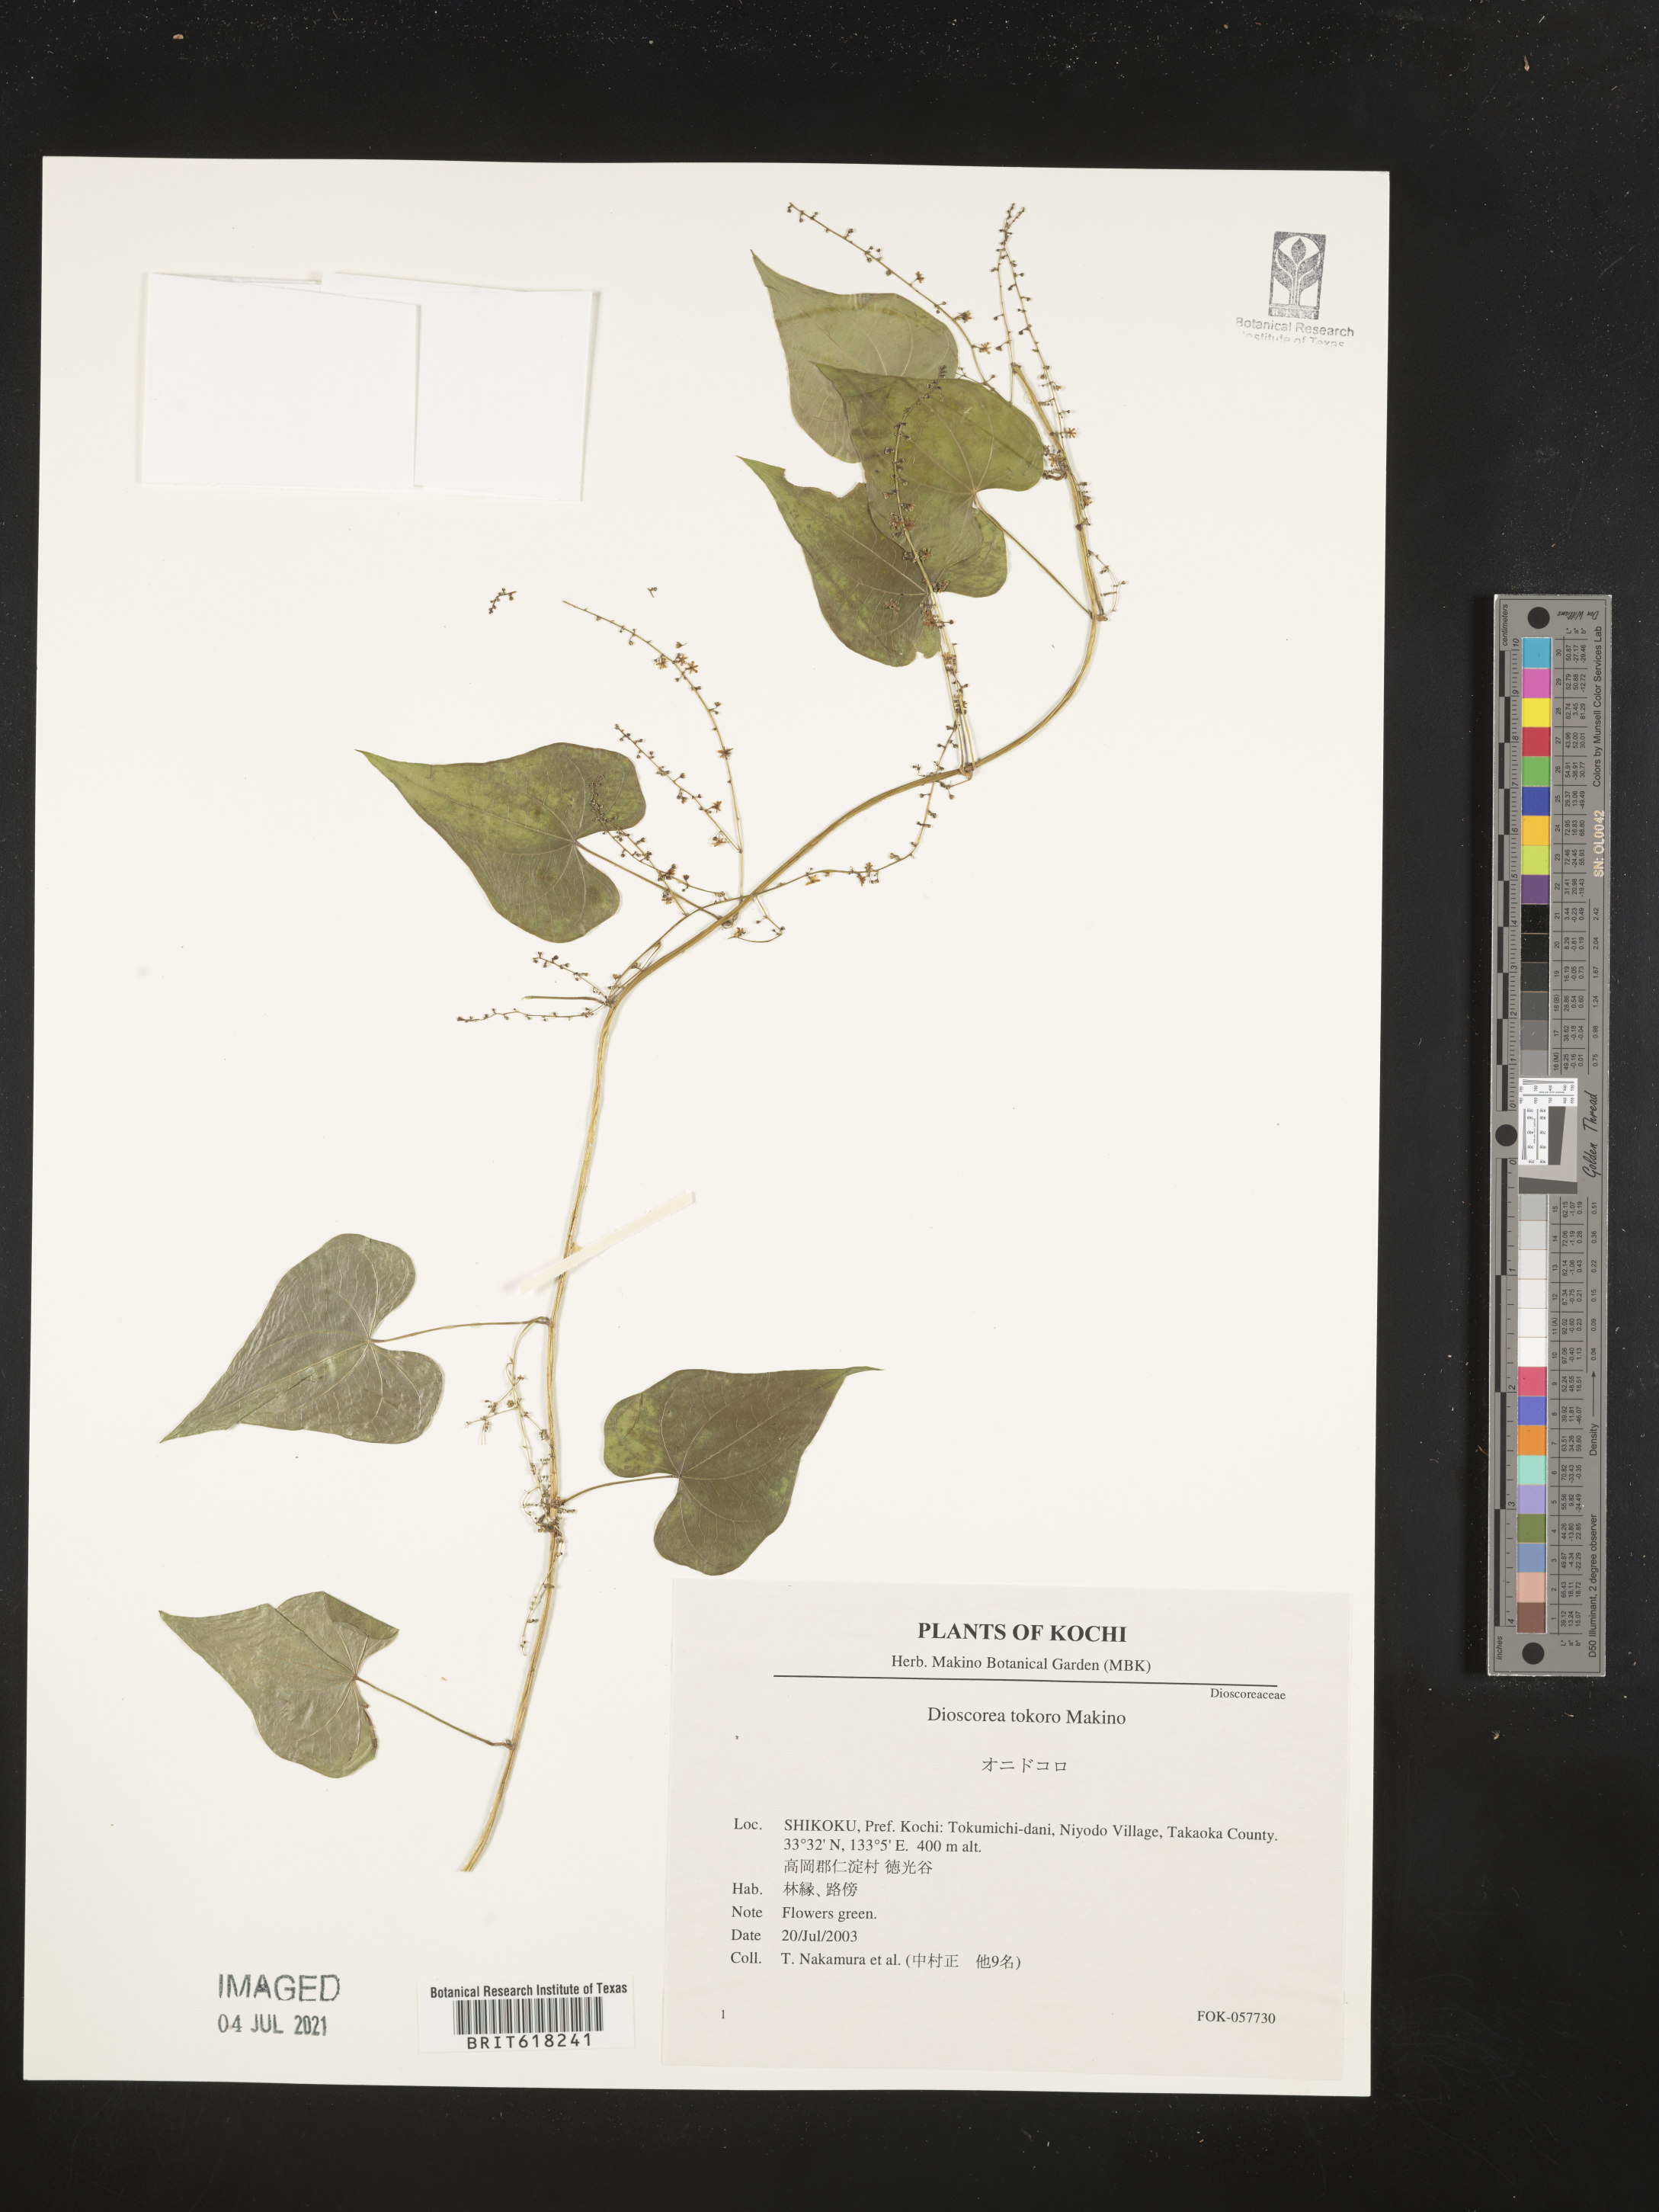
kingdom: Plantae
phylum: Tracheophyta
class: Liliopsida
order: Dioscoreales
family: Dioscoreaceae
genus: Dioscorea
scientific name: Dioscorea tokoro
